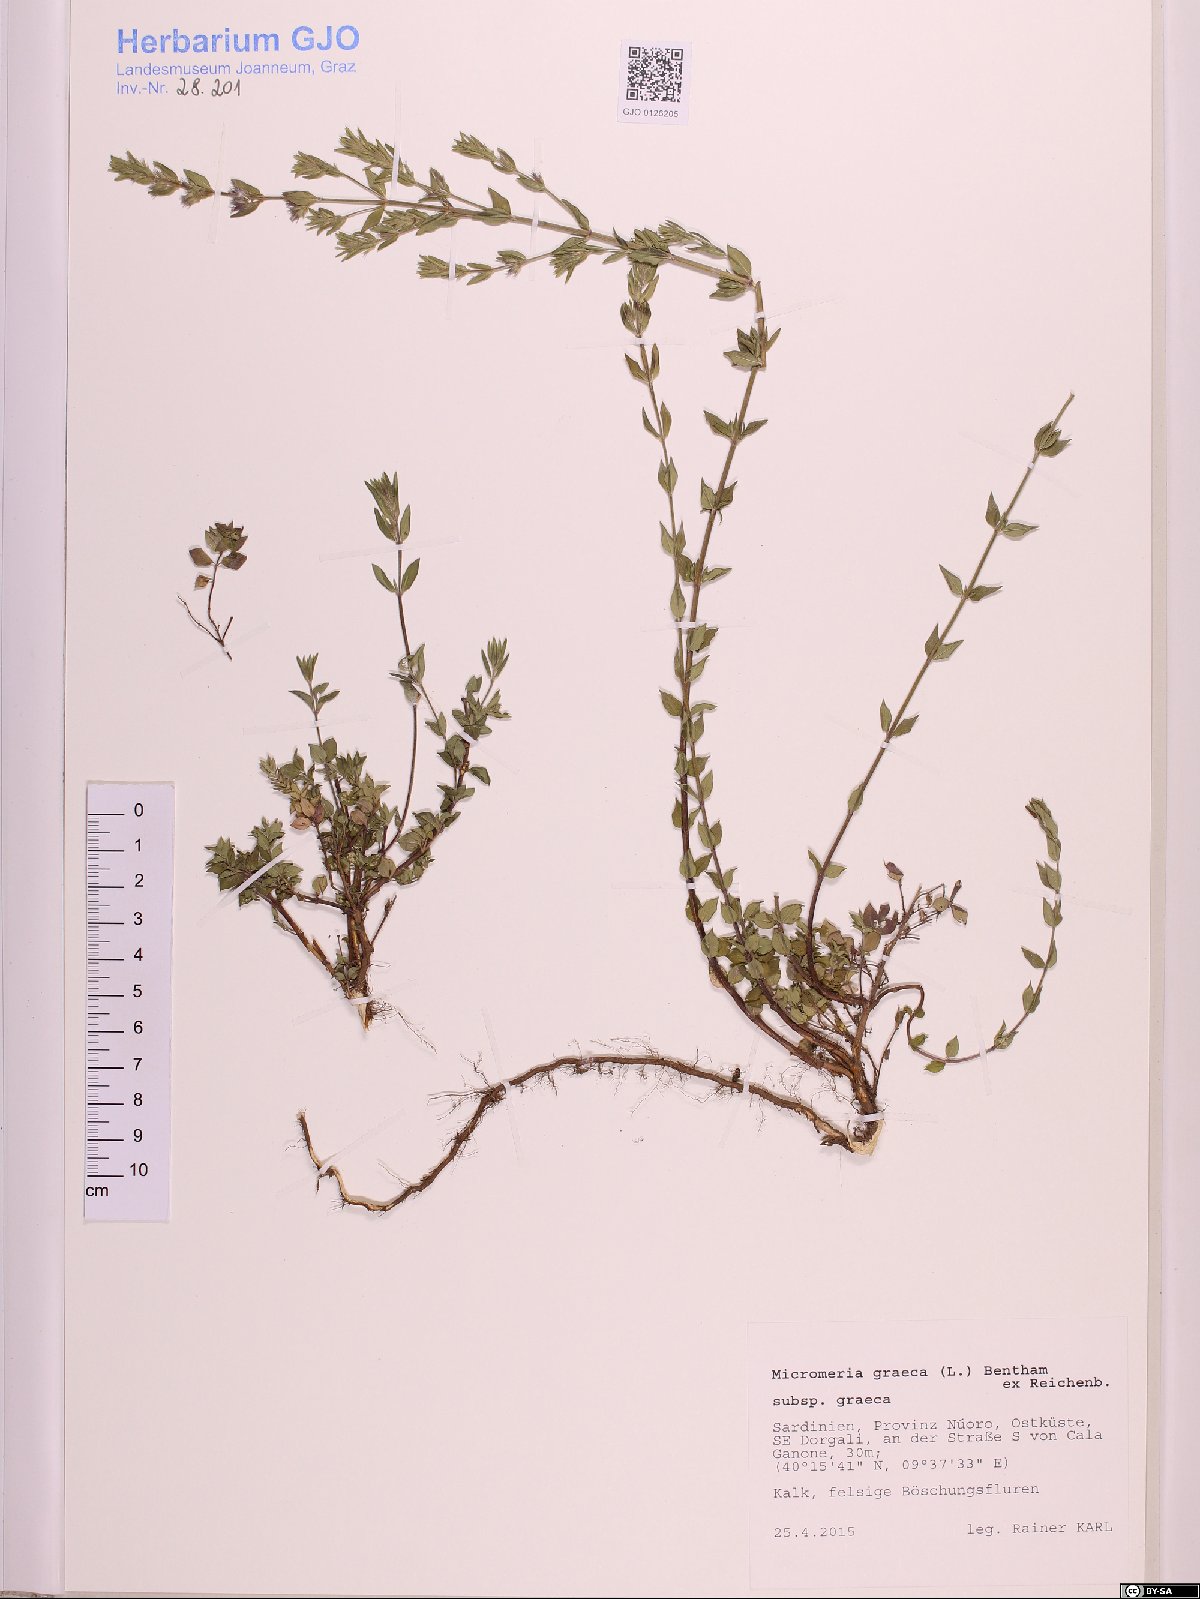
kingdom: Plantae
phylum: Tracheophyta
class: Magnoliopsida
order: Lamiales
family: Lamiaceae
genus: Micromeria
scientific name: Micromeria graeca
